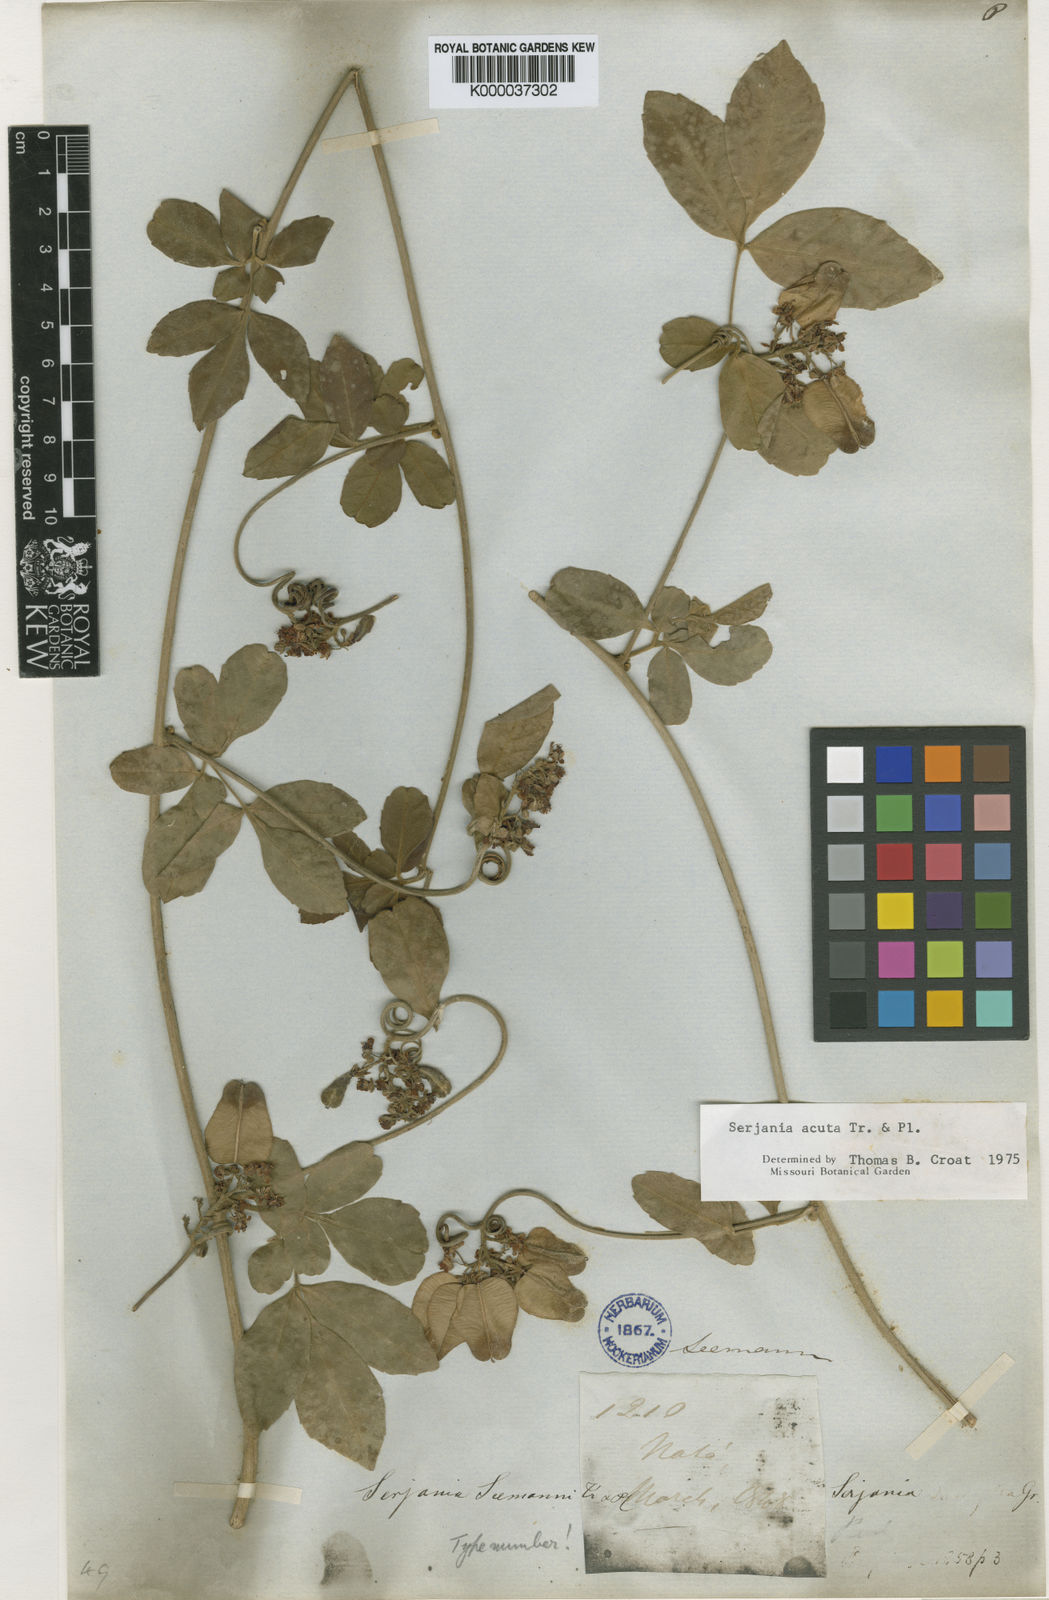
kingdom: Plantae
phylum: Tracheophyta
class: Magnoliopsida
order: Sapindales
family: Sapindaceae
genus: Serjania
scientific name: Serjania acuta
